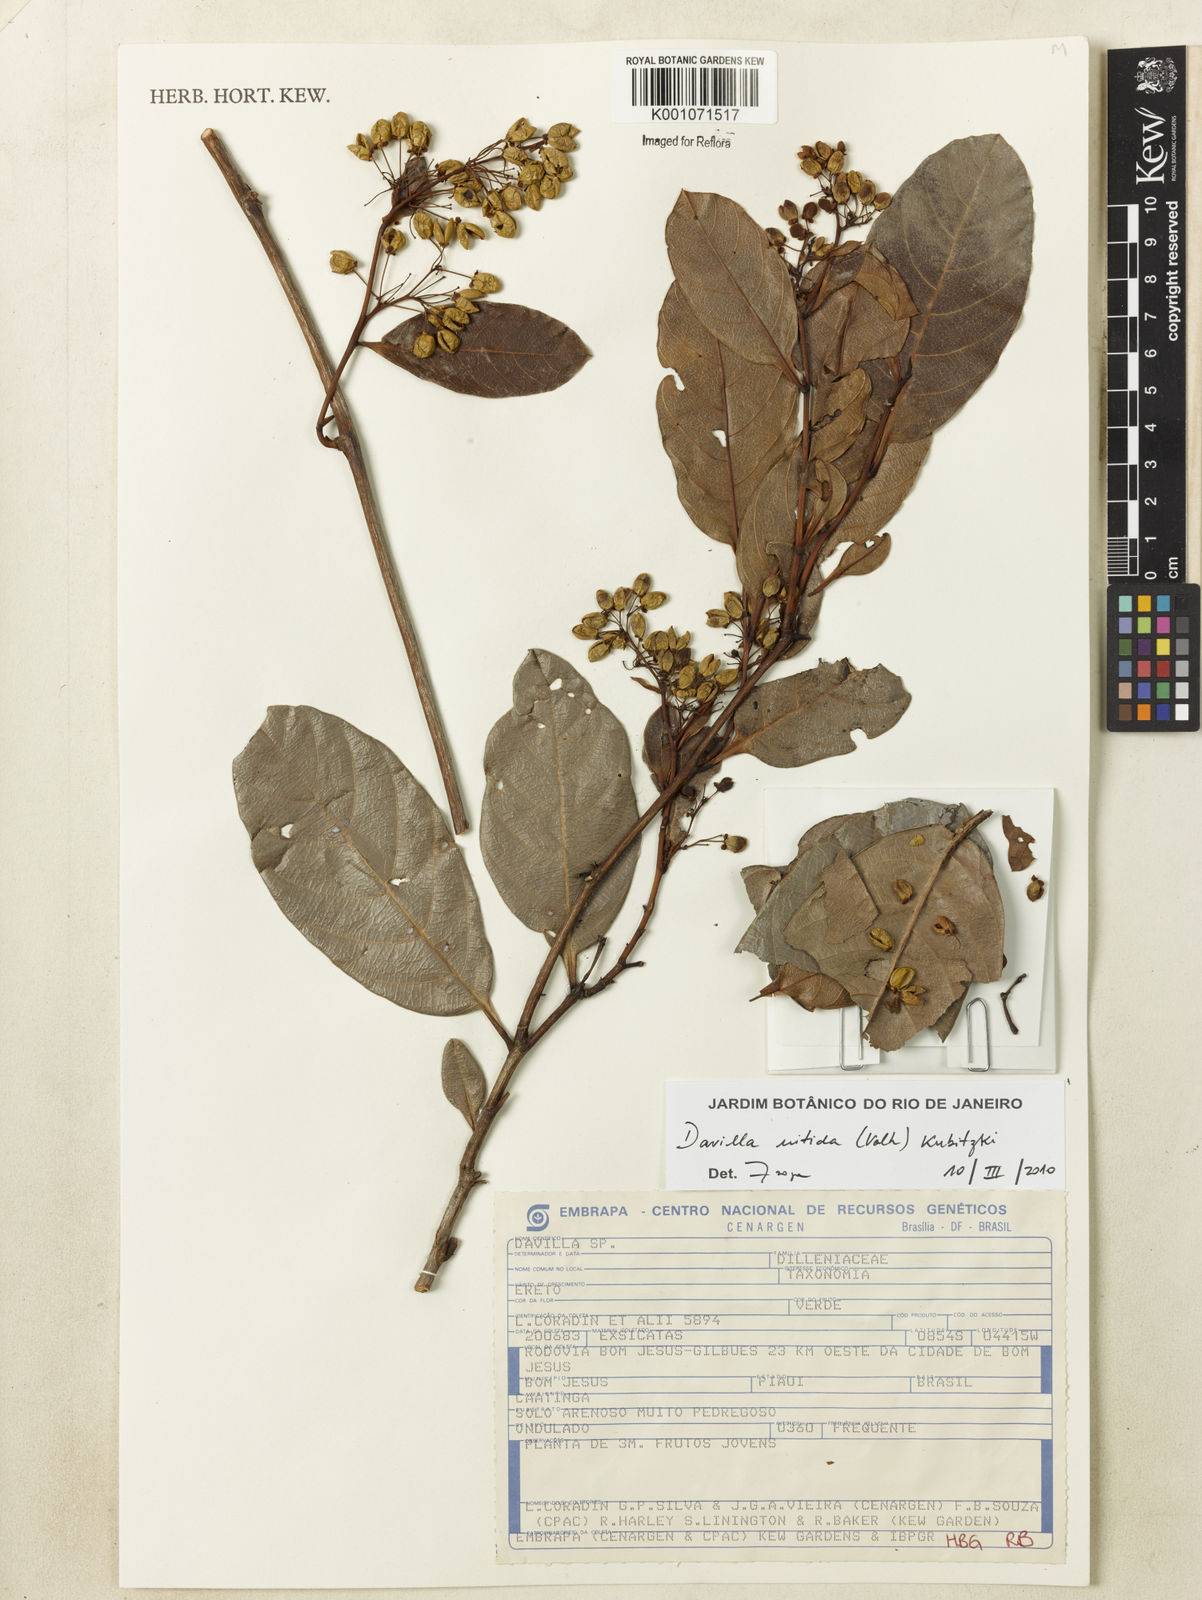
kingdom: Plantae
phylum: Tracheophyta
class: Magnoliopsida
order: Dilleniales
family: Dilleniaceae
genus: Davilla
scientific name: Davilla nitida
